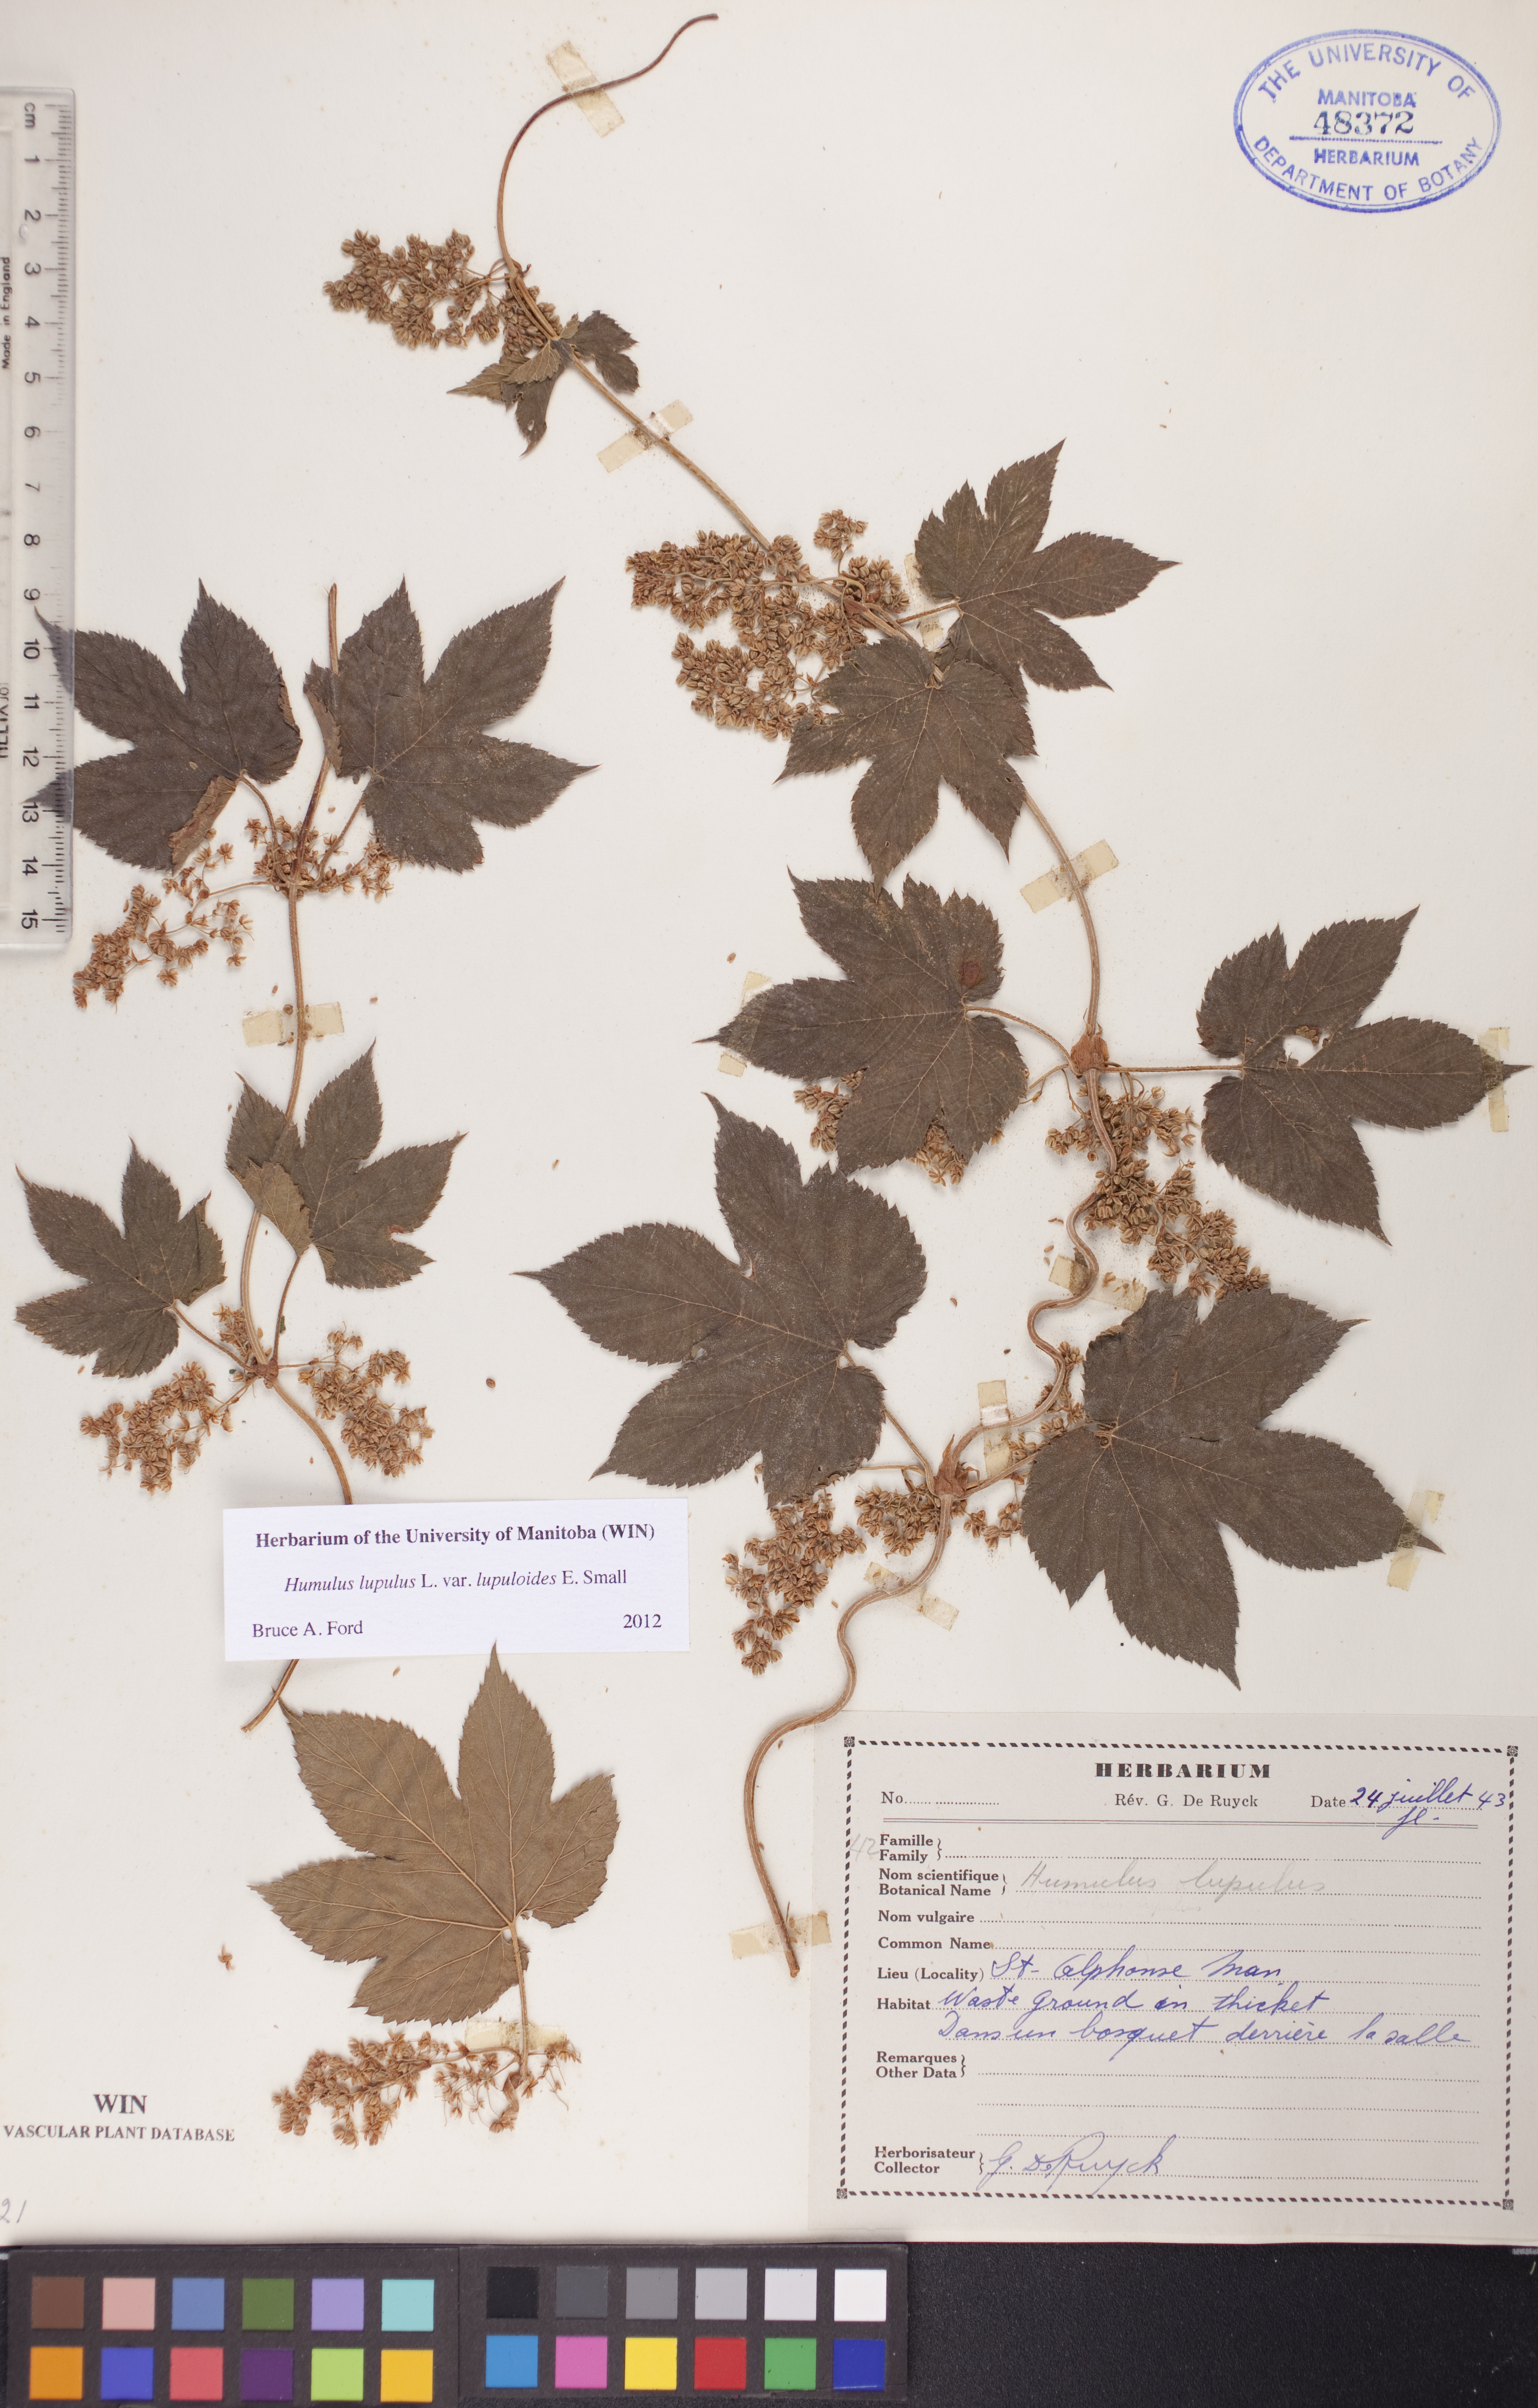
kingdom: Plantae
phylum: Tracheophyta
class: Magnoliopsida
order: Rosales
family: Cannabaceae
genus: Humulus
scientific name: Humulus americanus
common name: American hops
